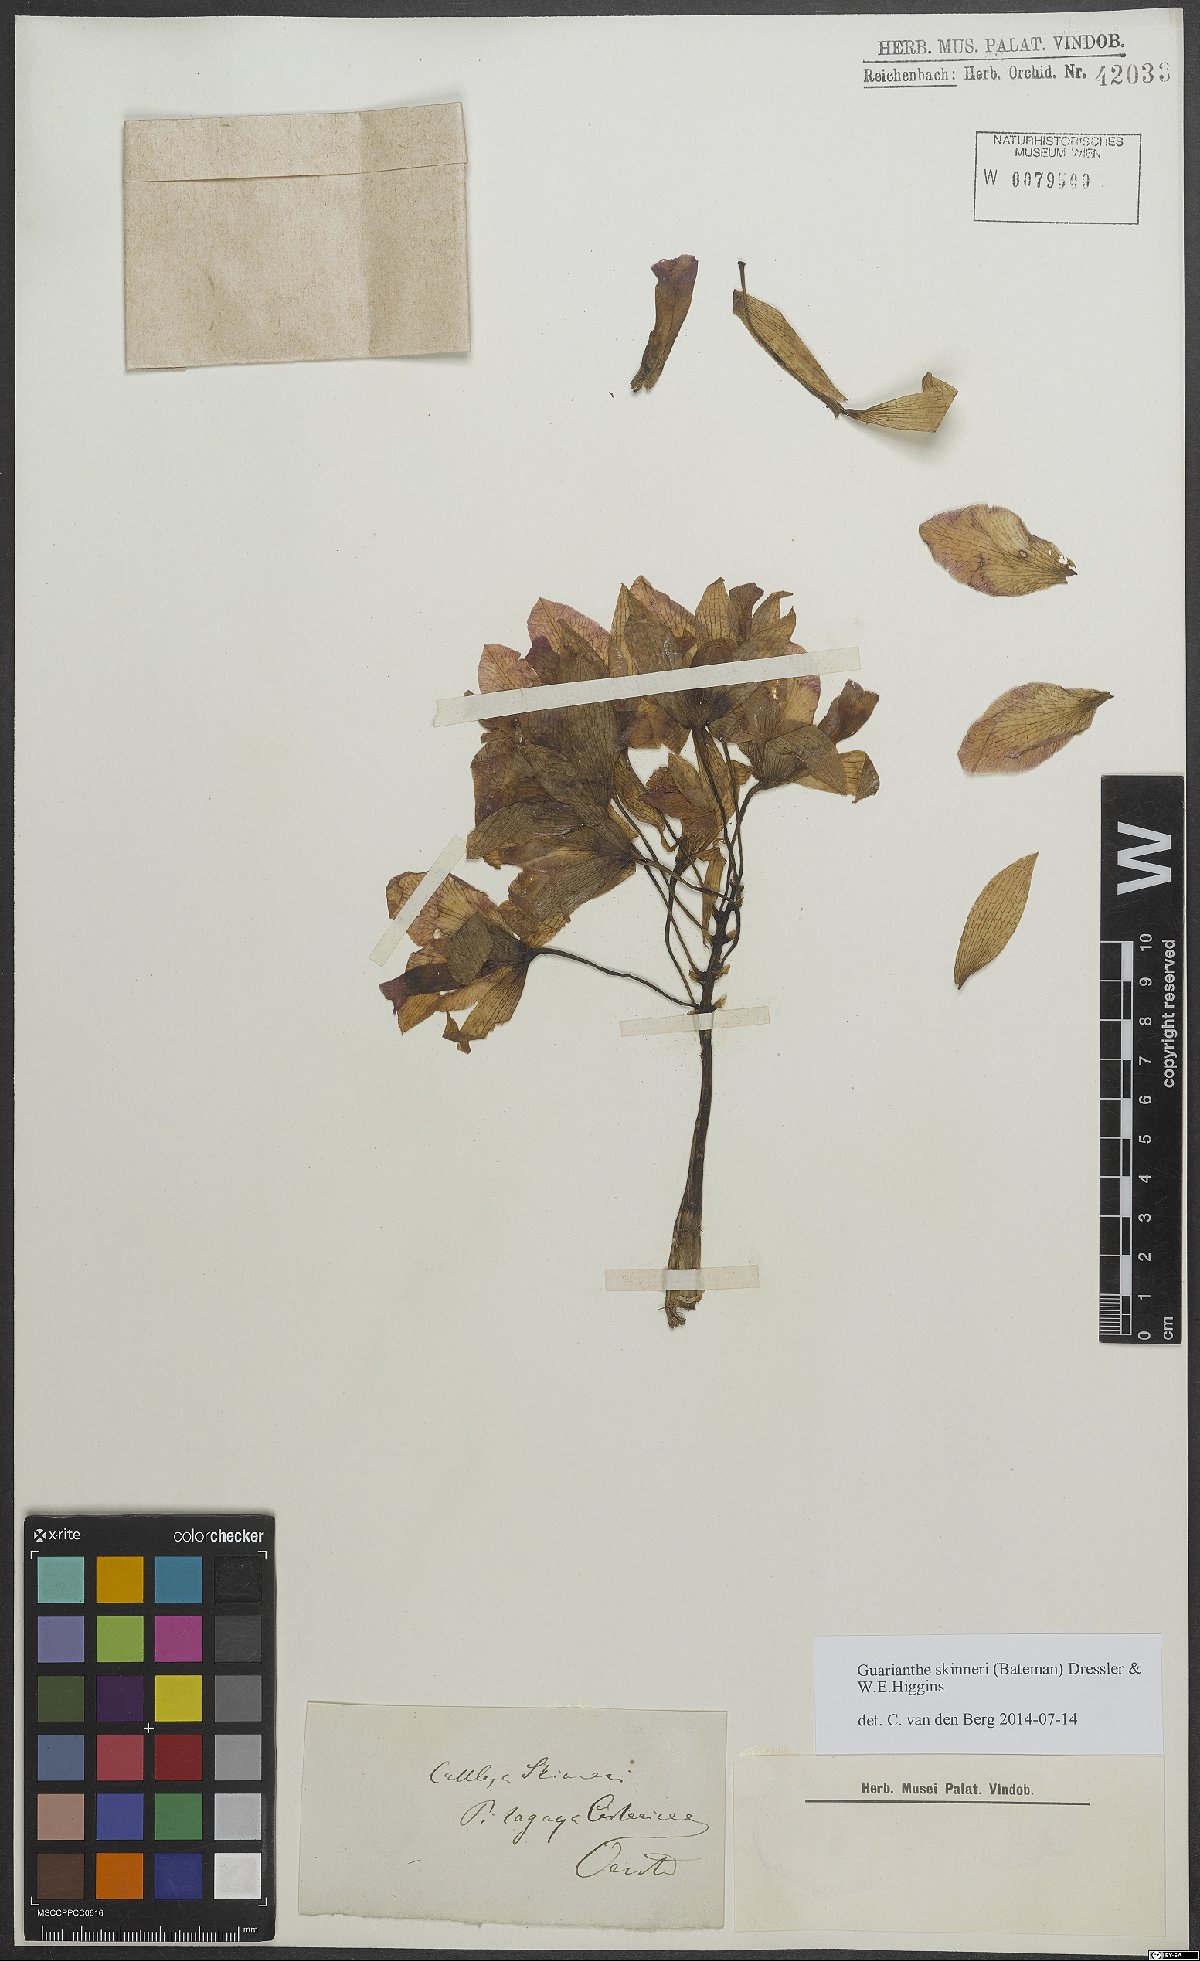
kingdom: Plantae
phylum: Tracheophyta
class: Liliopsida
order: Asparagales
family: Orchidaceae
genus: Guarianthe
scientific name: Guarianthe skinneri
